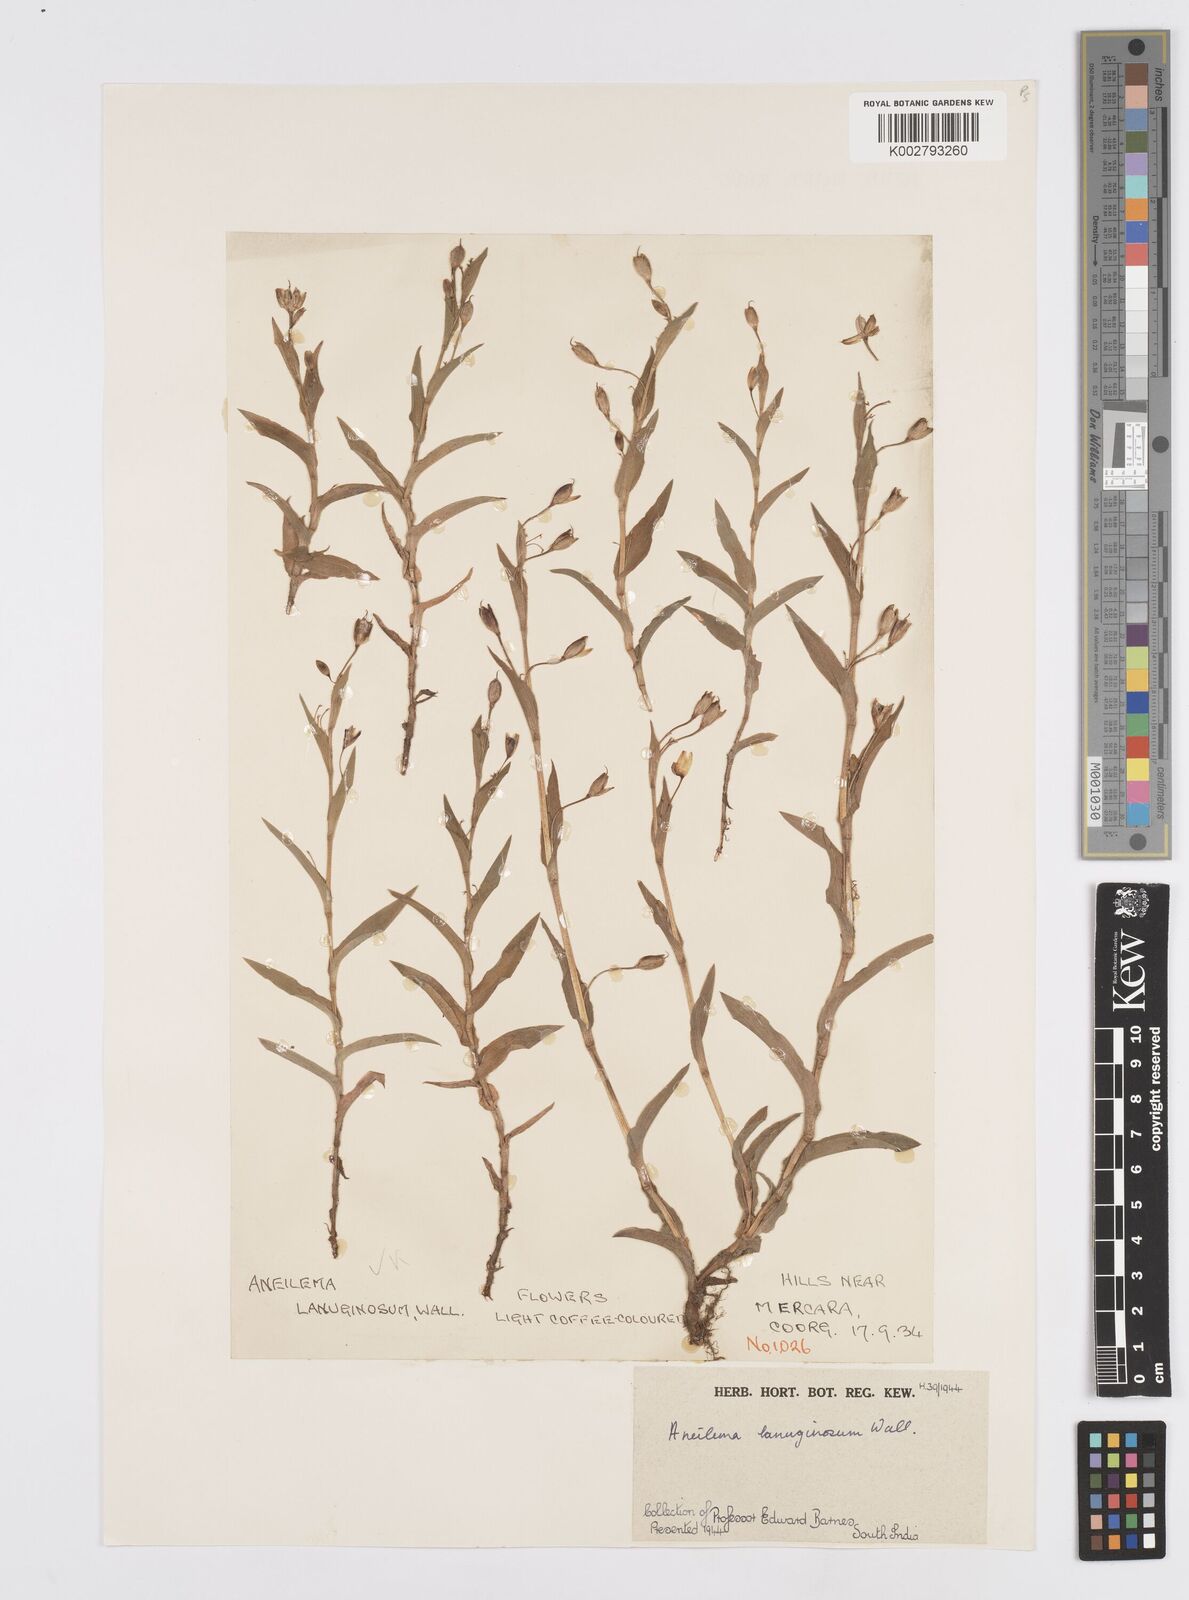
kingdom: Plantae
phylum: Tracheophyta
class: Liliopsida
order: Commelinales
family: Commelinaceae
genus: Murdannia
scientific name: Murdannia lanuginosa
